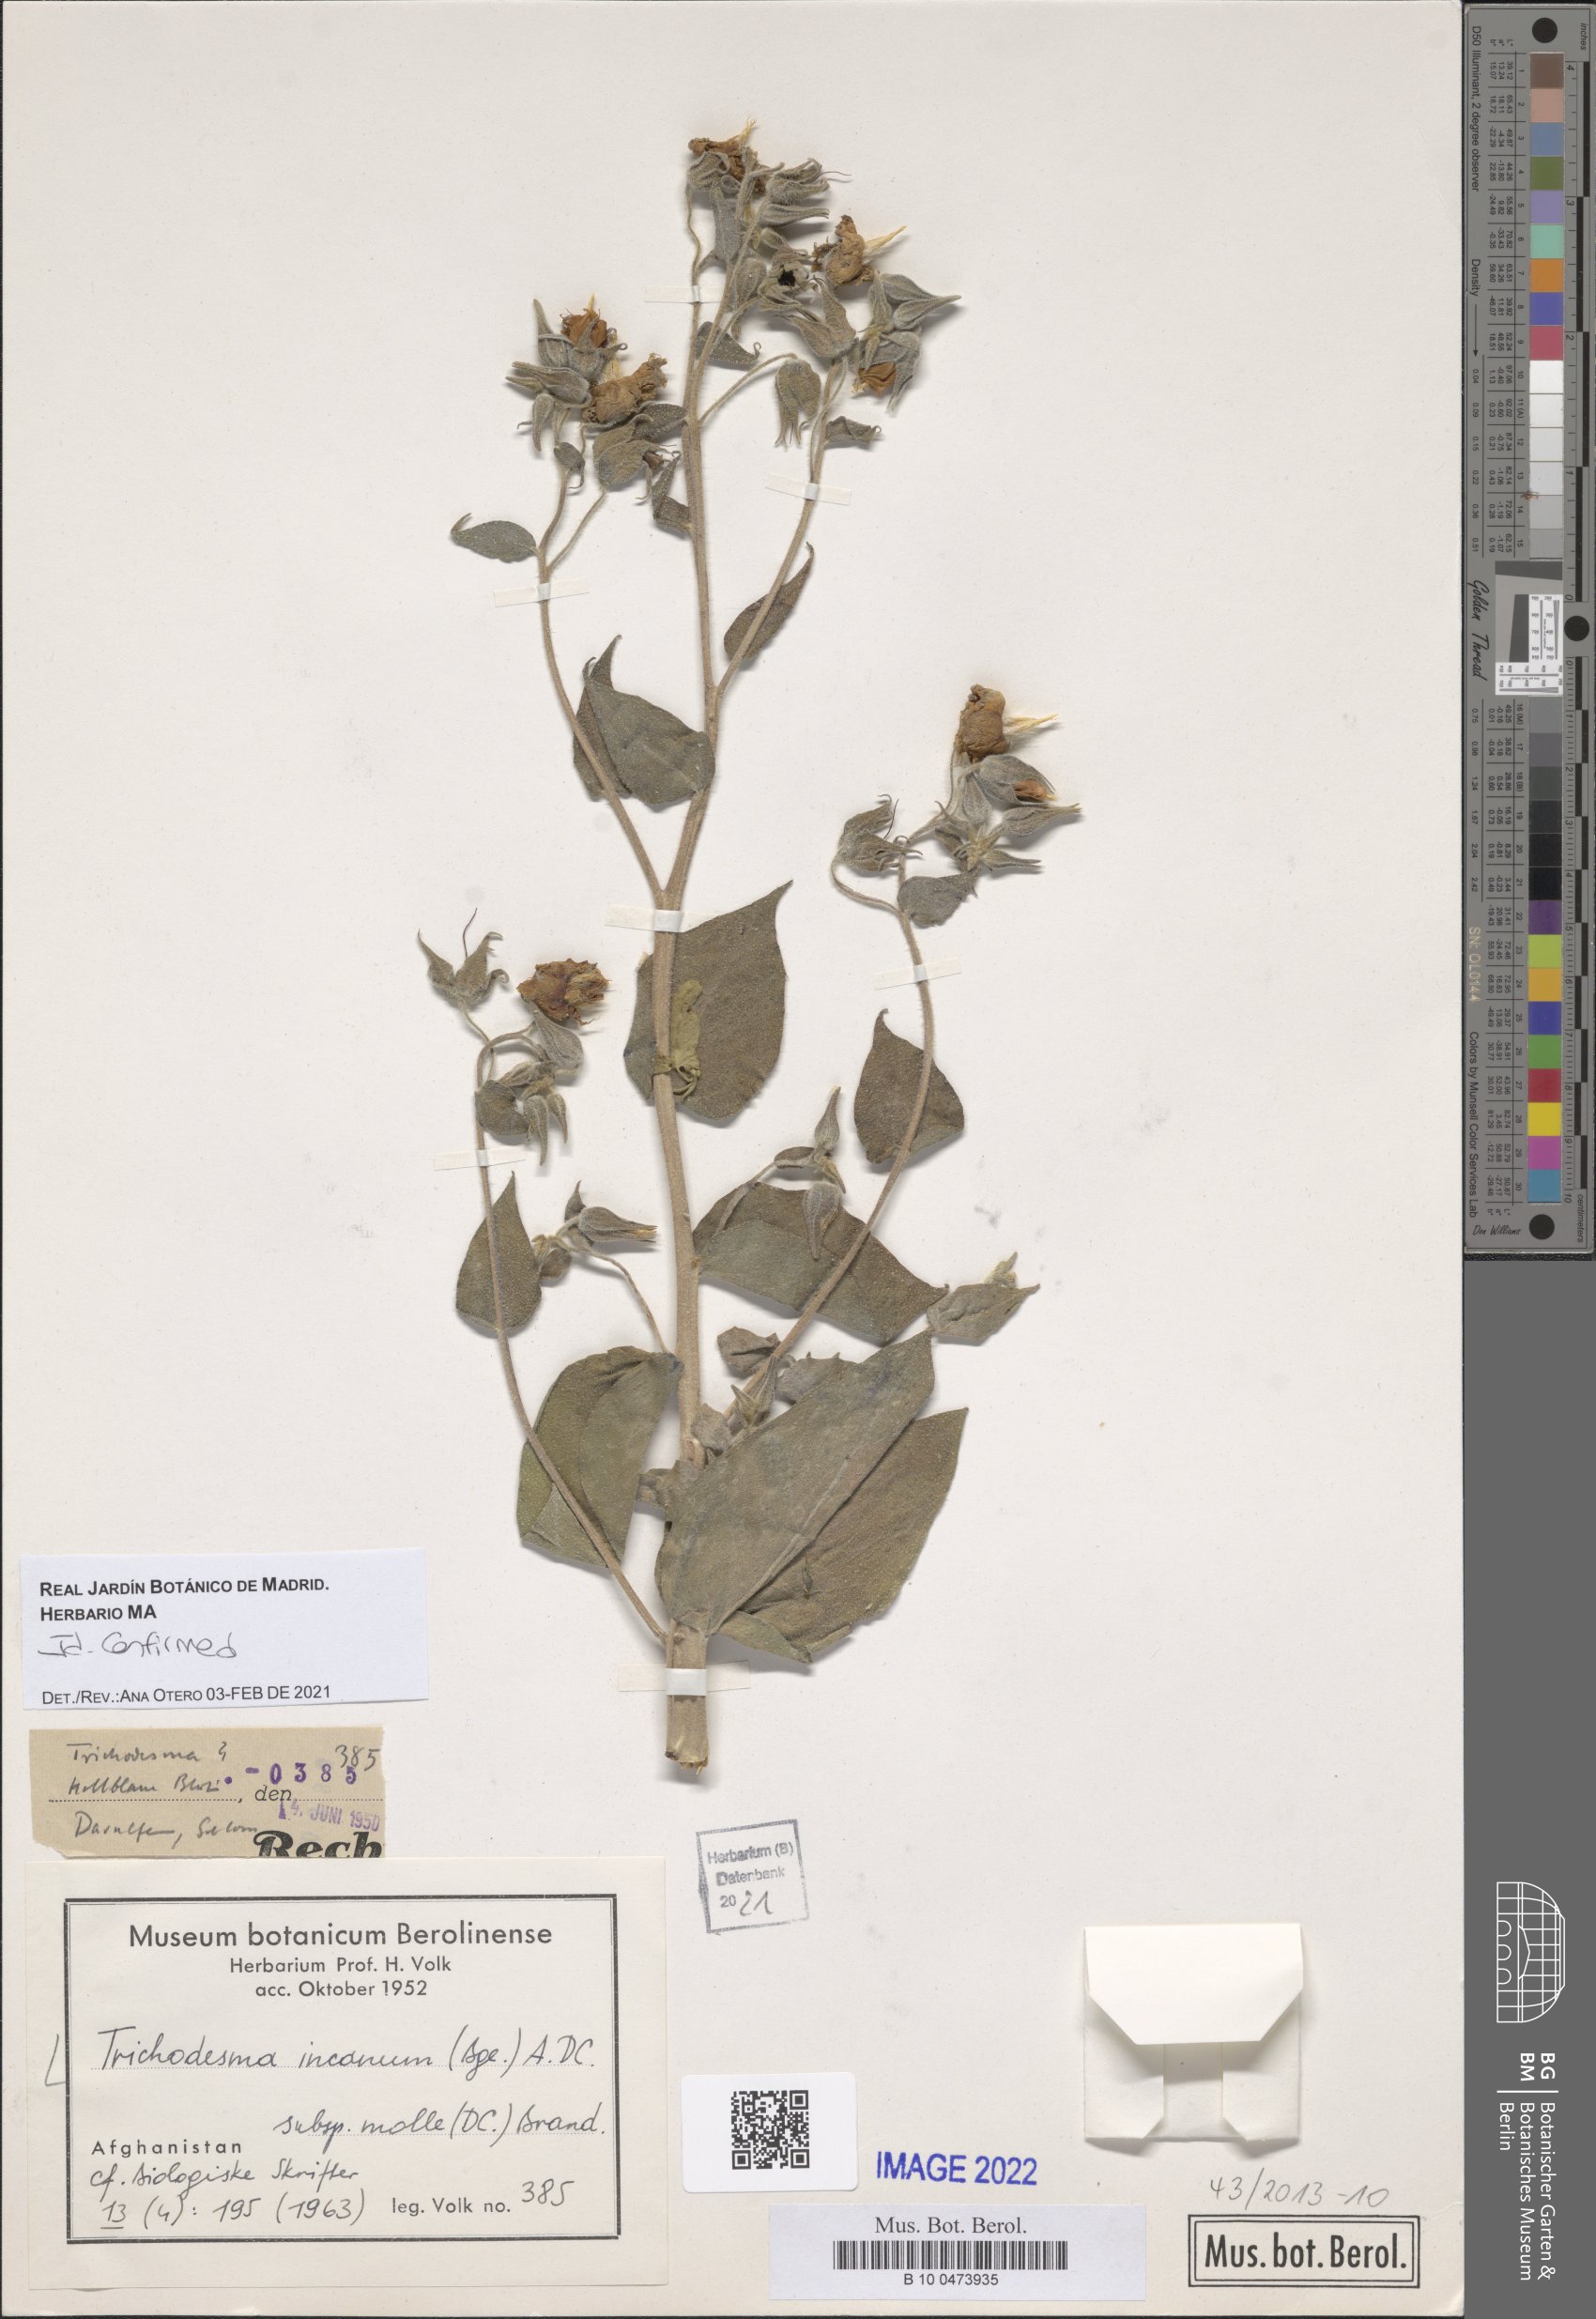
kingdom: Plantae
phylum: Tracheophyta
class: Magnoliopsida
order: Boraginales
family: Boraginaceae
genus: Trichodesma
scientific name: Trichodesma incanum
